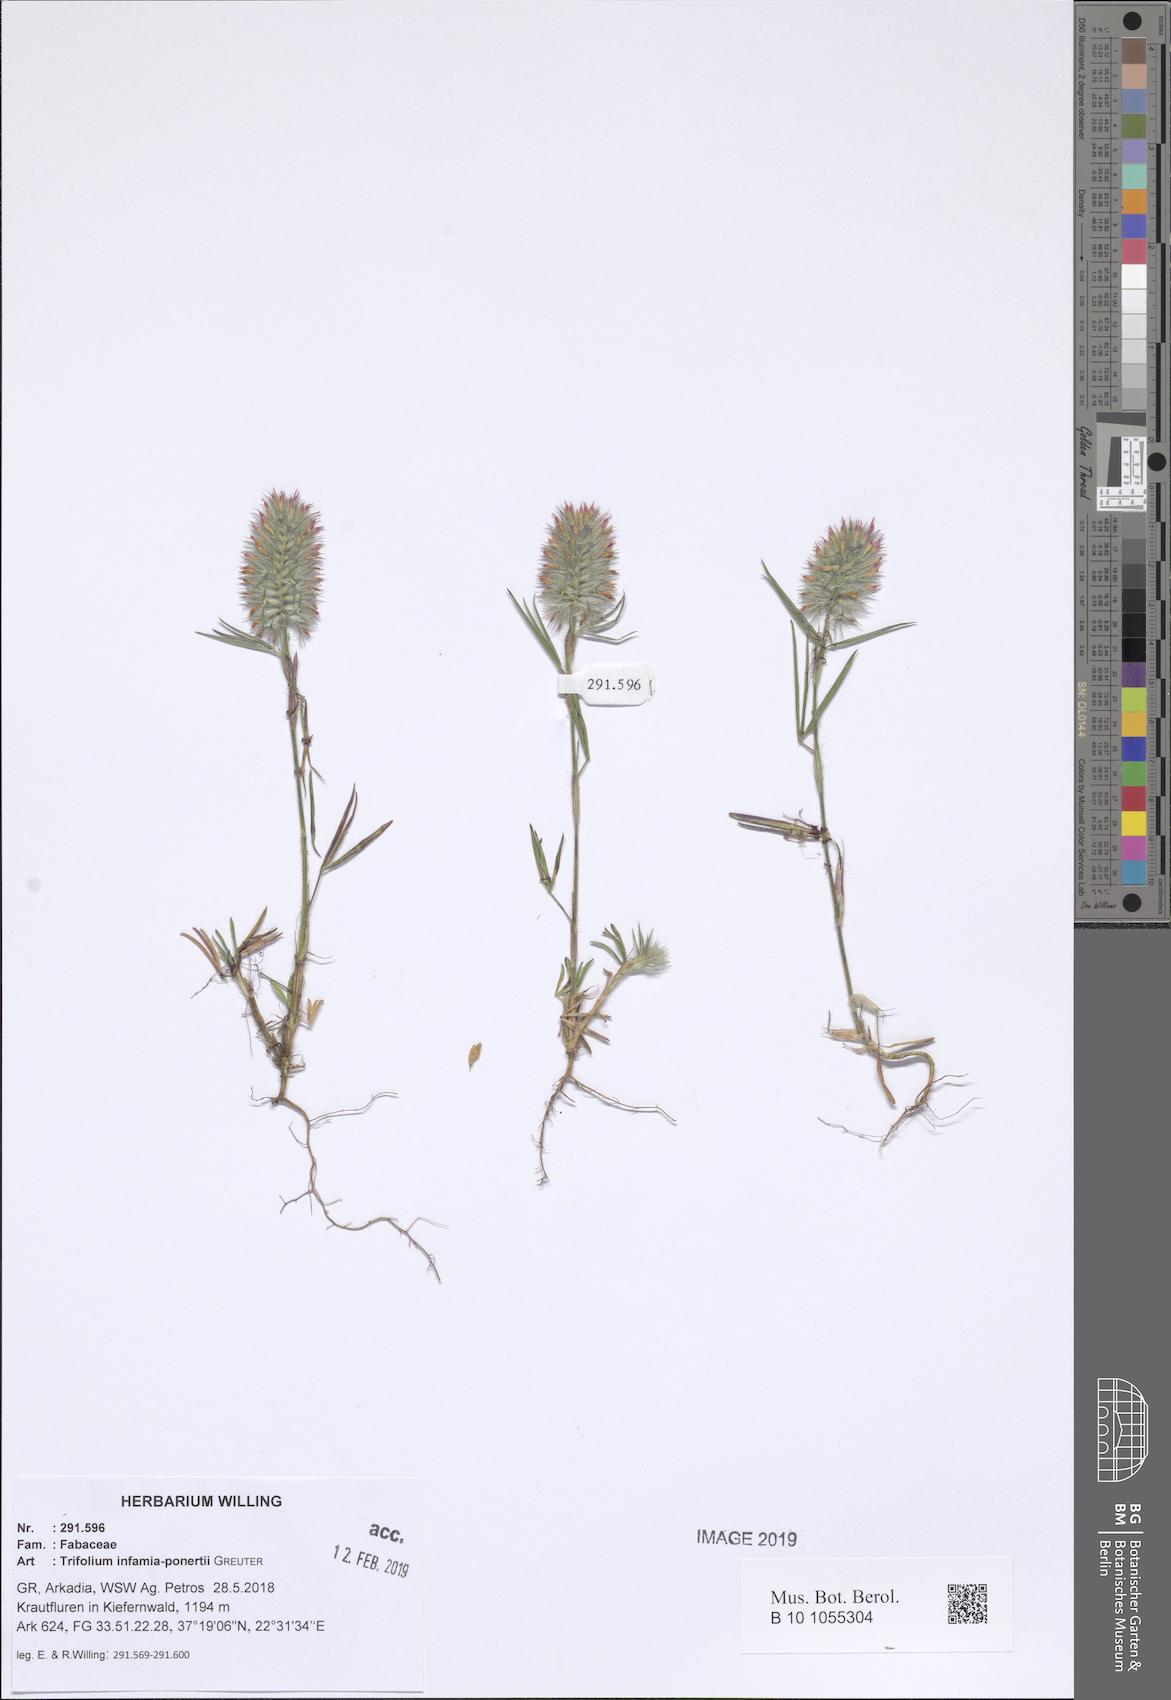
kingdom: Plantae
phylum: Tracheophyta
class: Magnoliopsida
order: Fabales
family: Fabaceae
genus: Trifolium
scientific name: Trifolium infamia-ponertii
